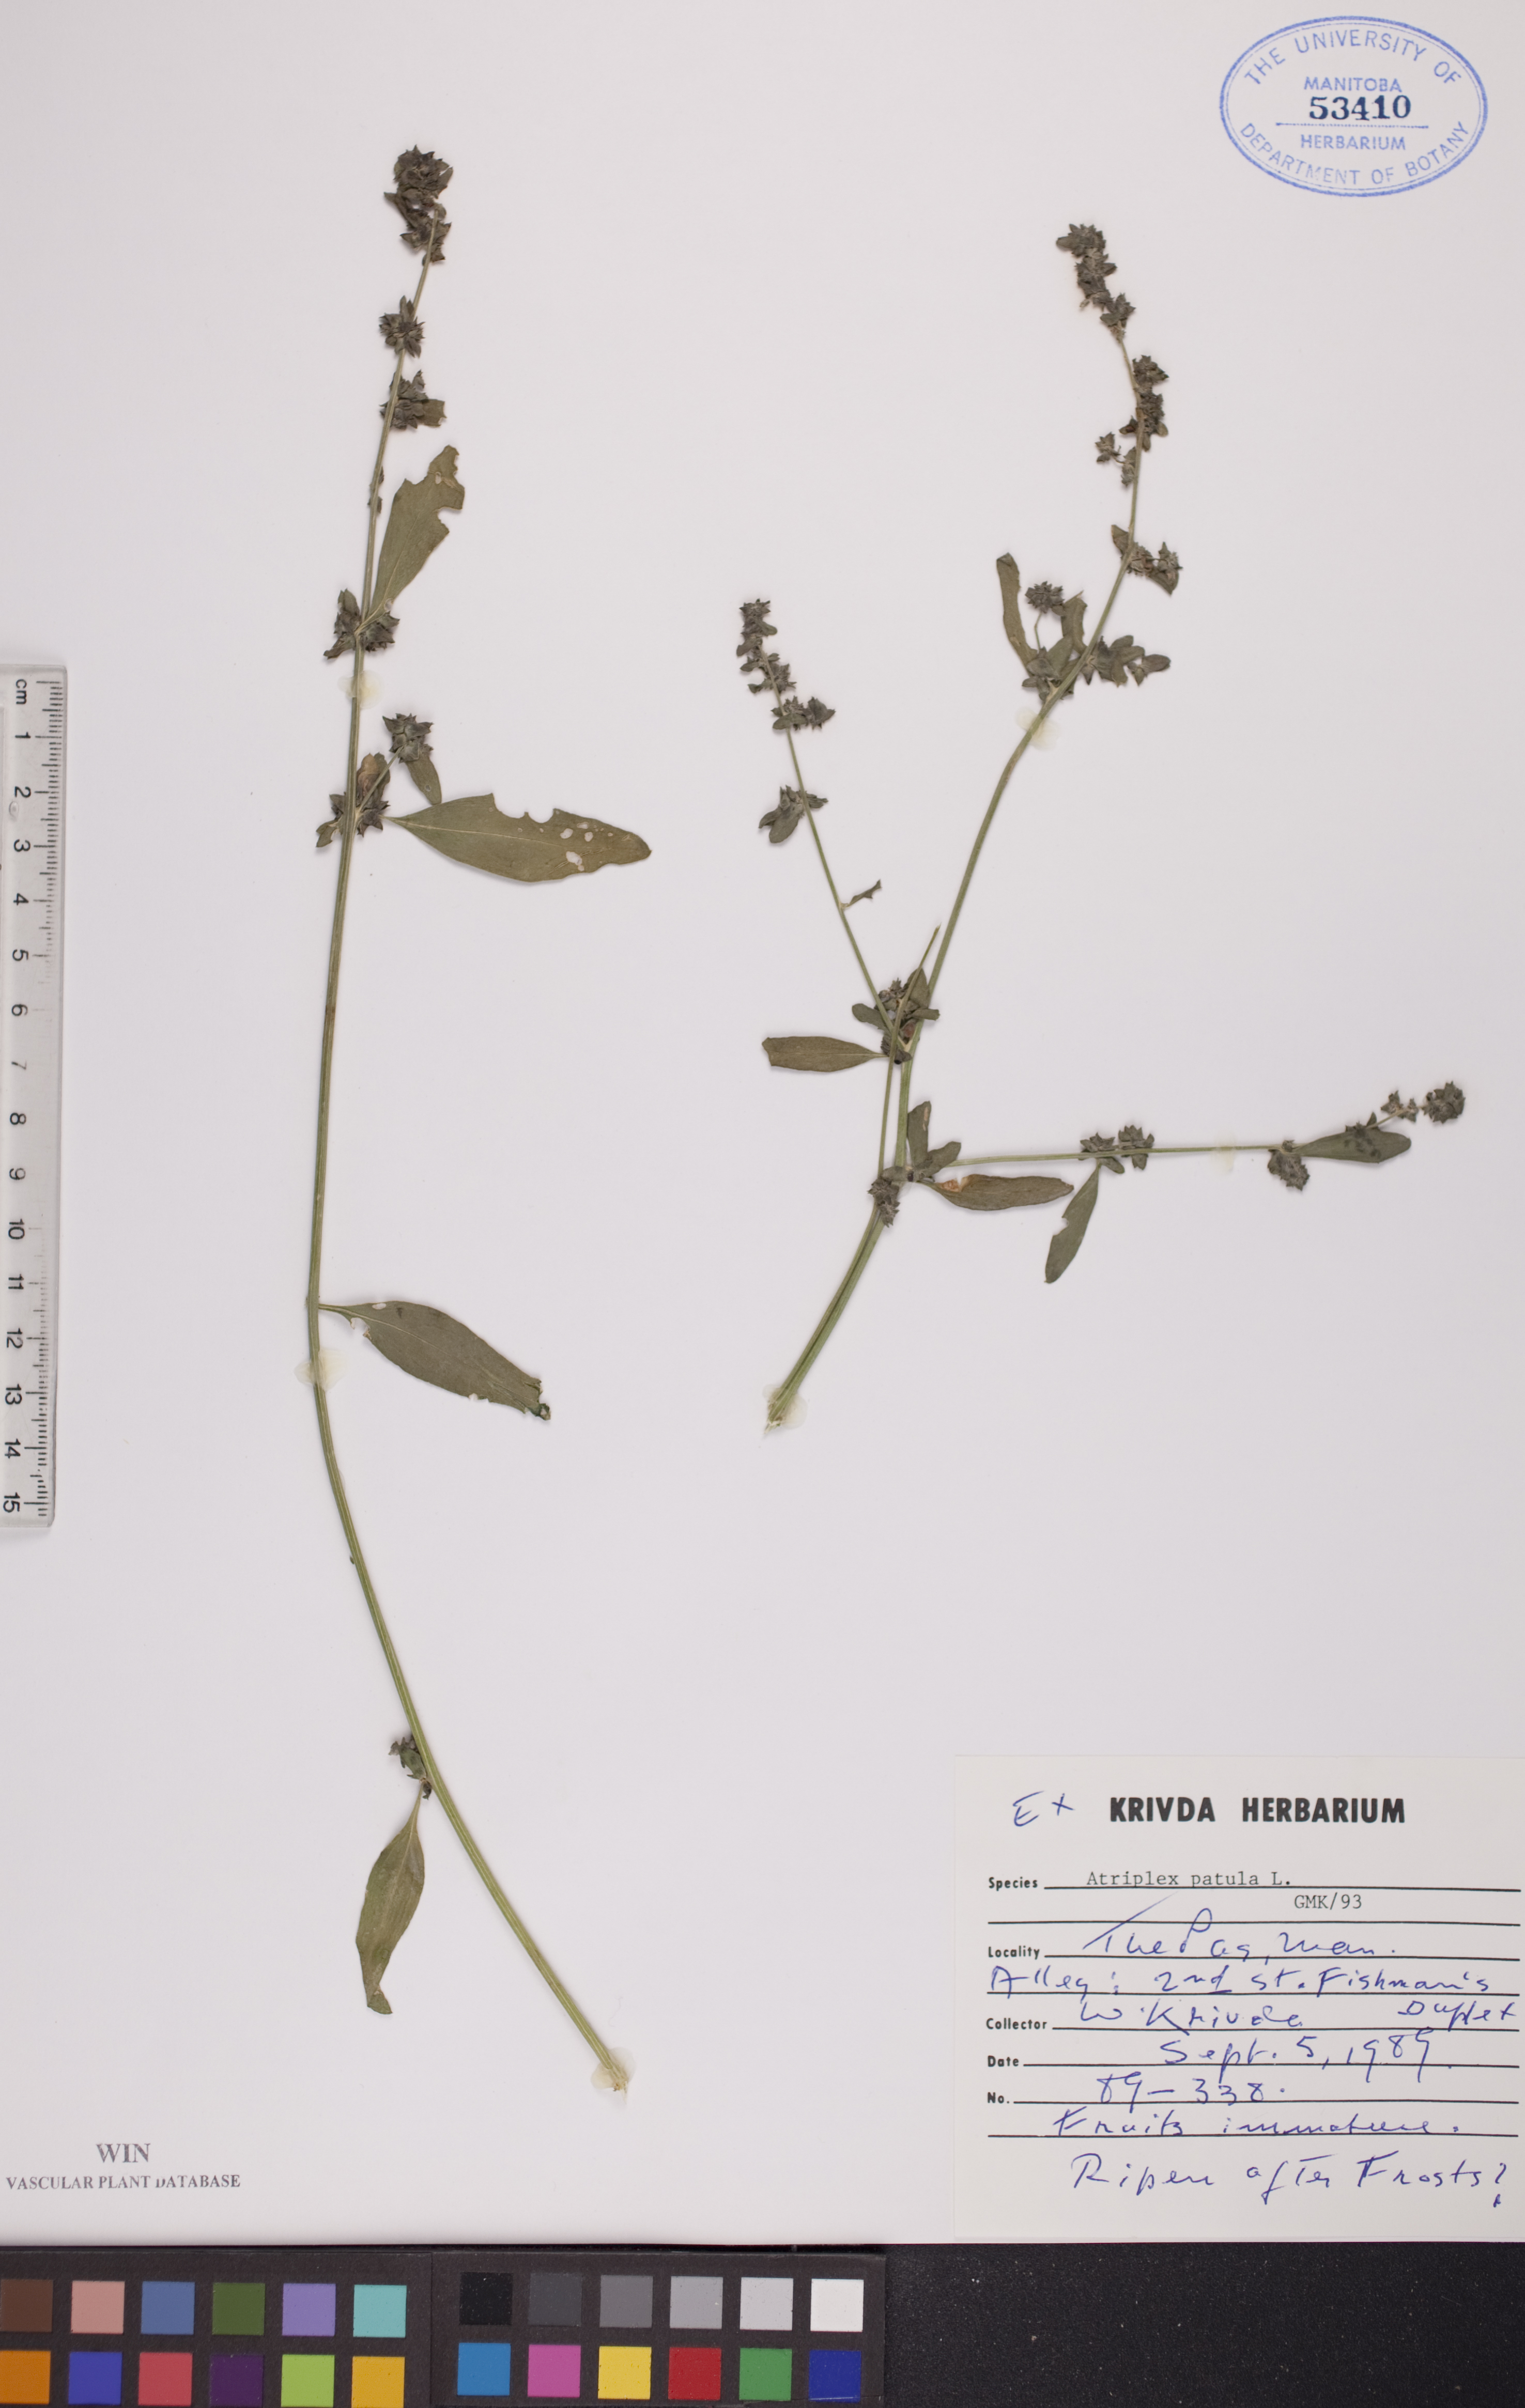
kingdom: Plantae
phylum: Tracheophyta
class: Magnoliopsida
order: Caryophyllales
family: Amaranthaceae
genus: Atriplex
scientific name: Atriplex patula
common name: Common orache
